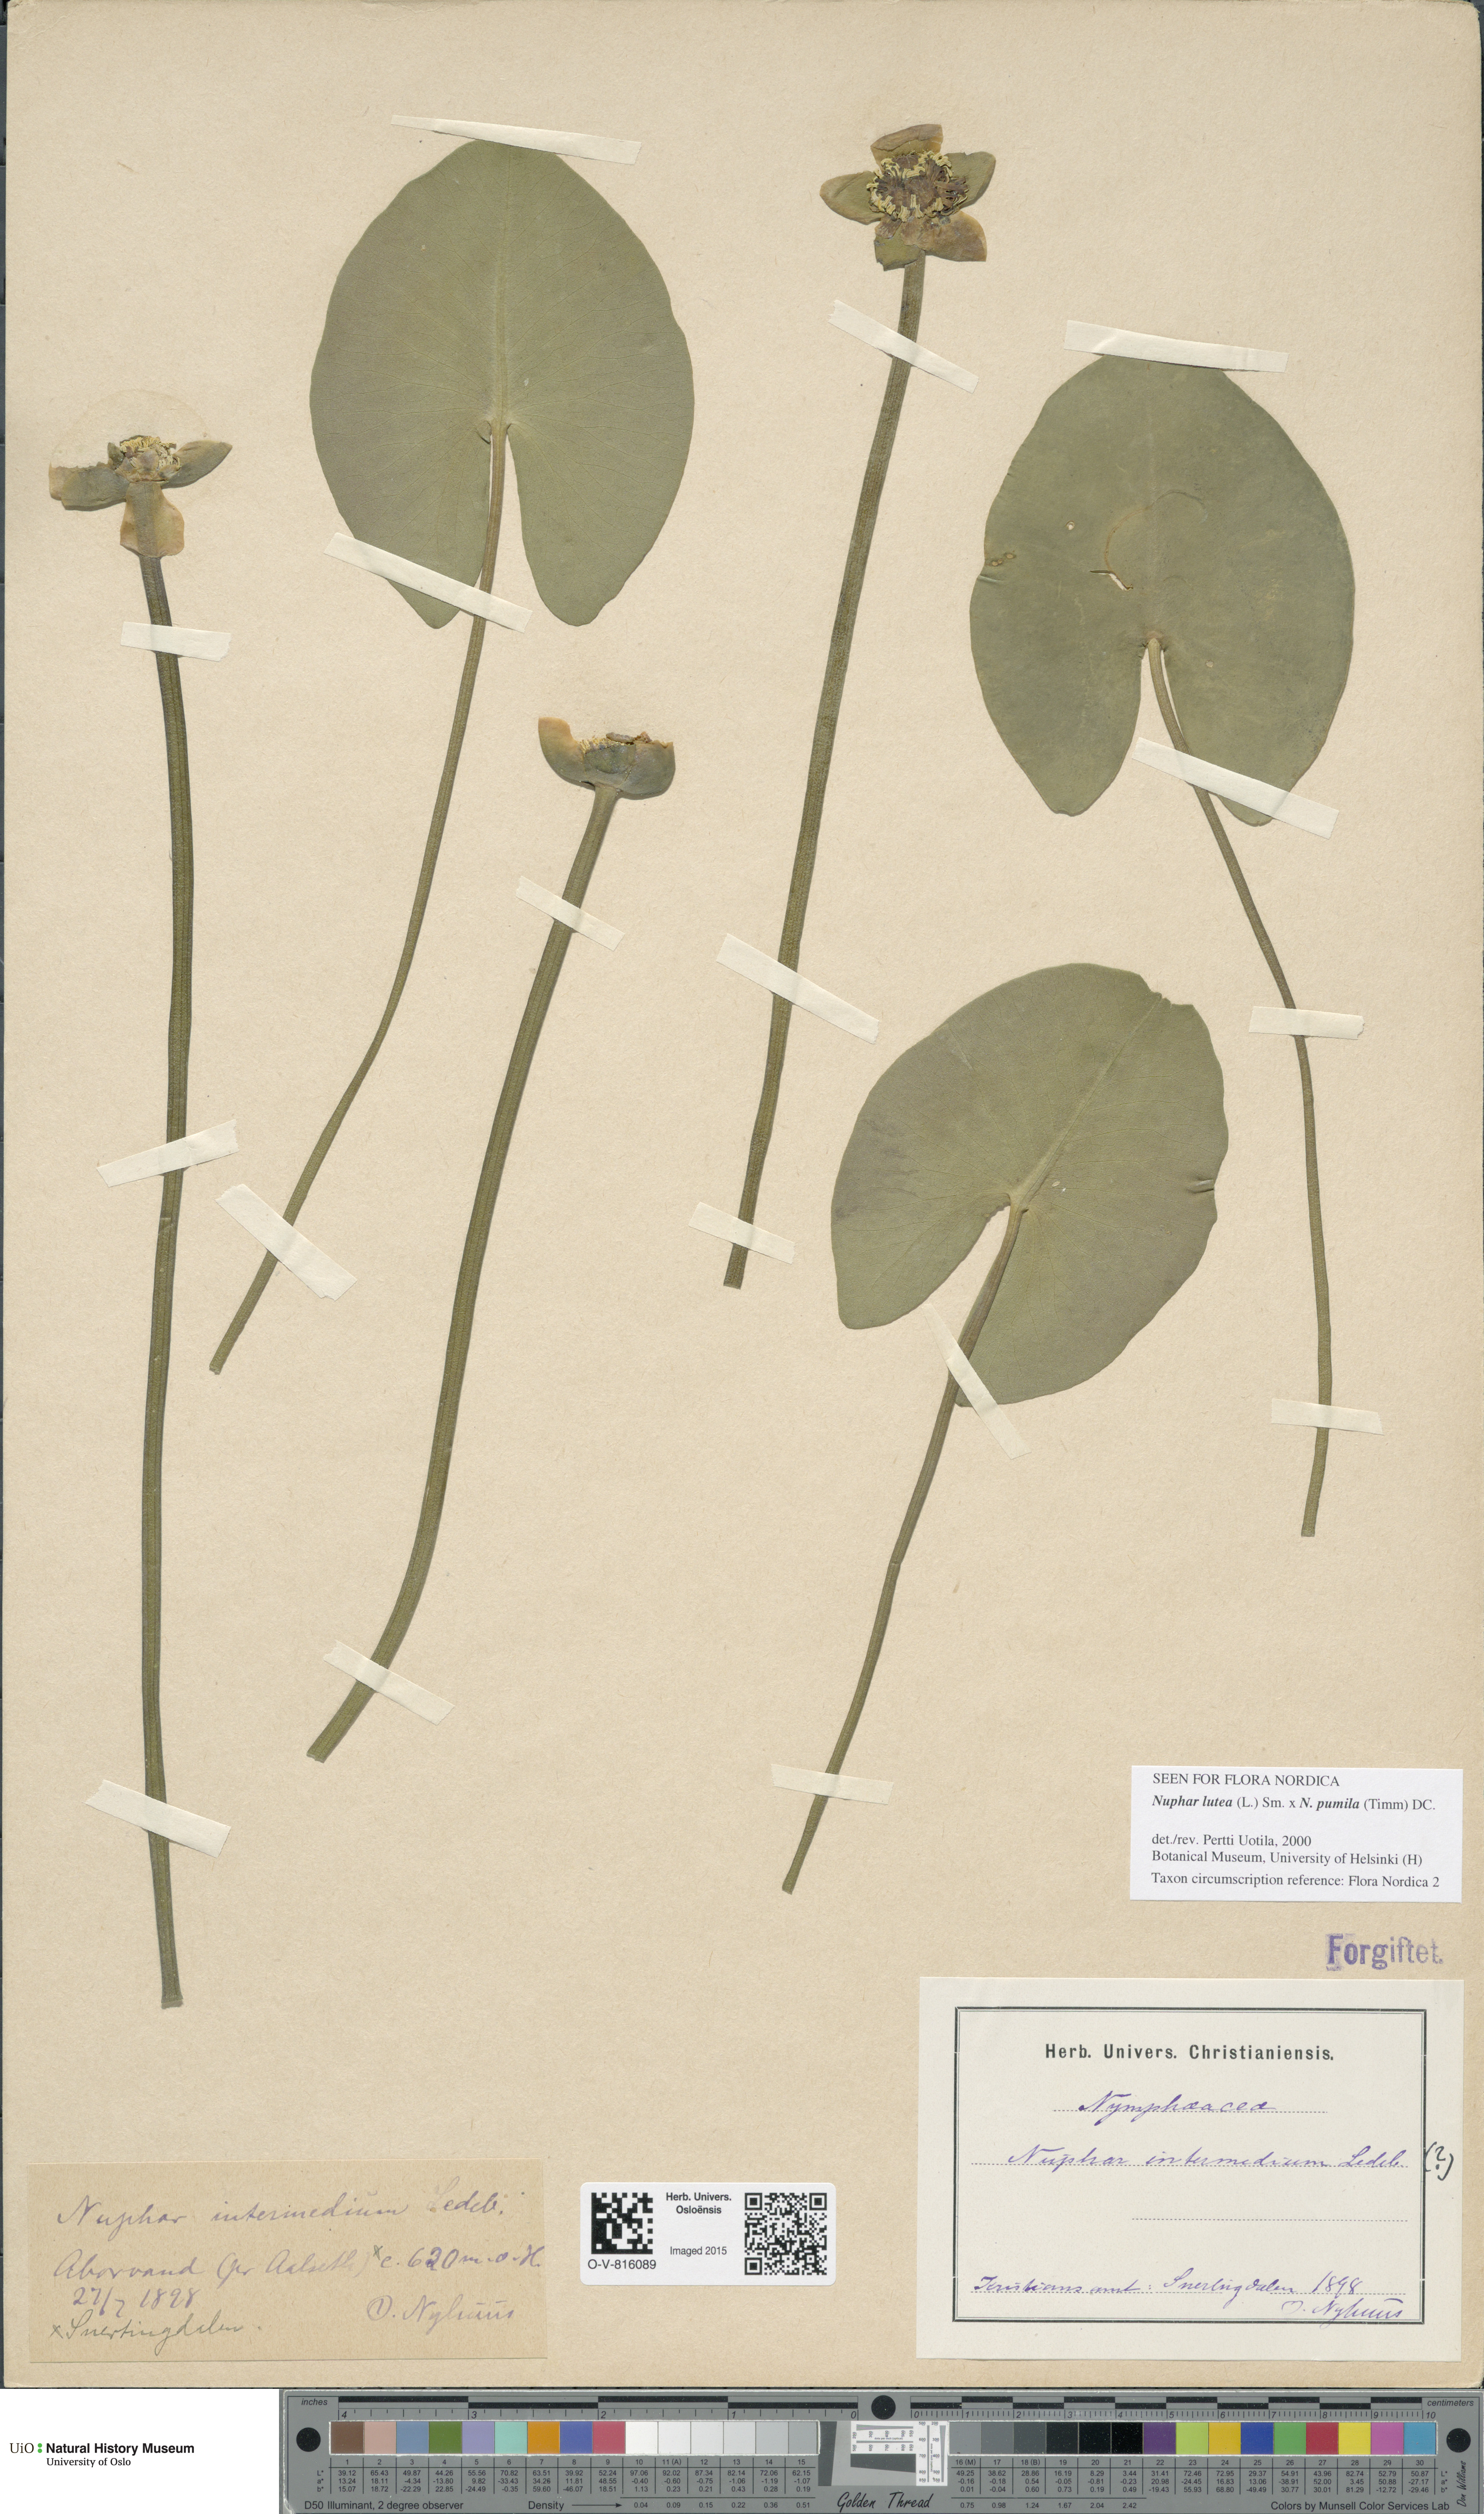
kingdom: Plantae
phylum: Tracheophyta
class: Magnoliopsida
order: Nymphaeales
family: Nymphaeaceae
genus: Nuphar
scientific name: Nuphar
